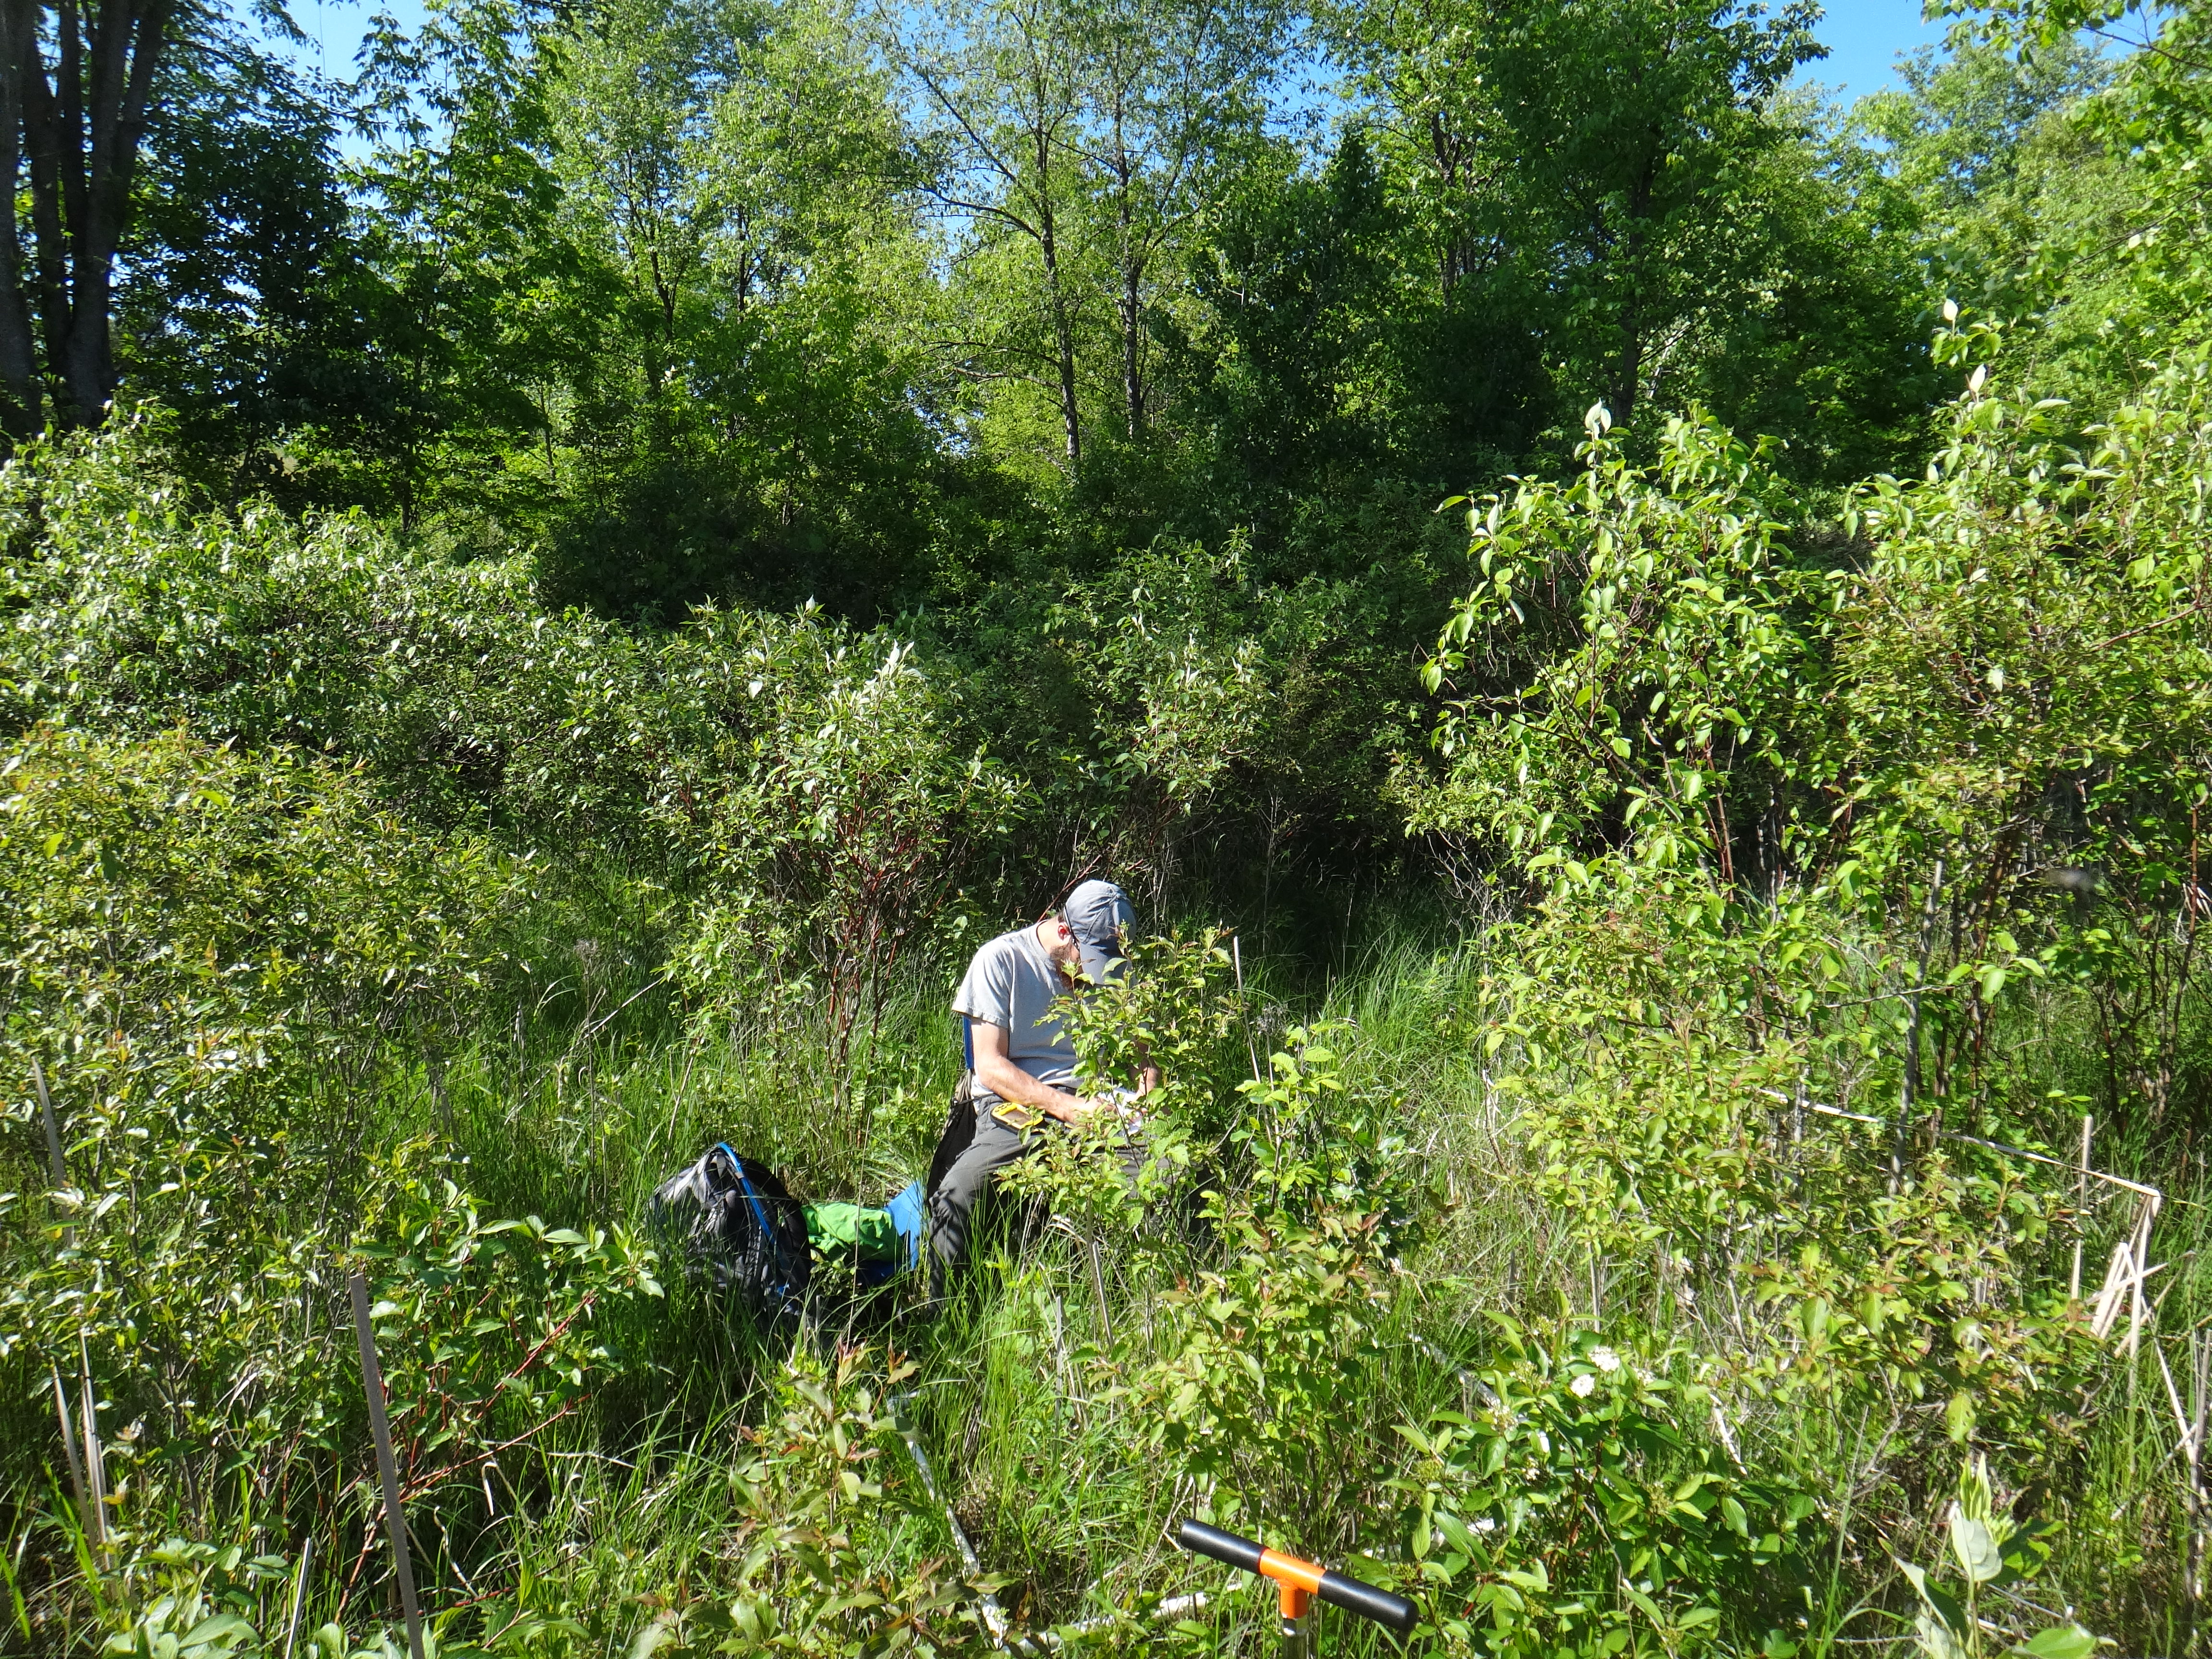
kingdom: Plantae
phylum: Tracheophyta
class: Magnoliopsida
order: Fabales
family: Fabaceae
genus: Lathyrus
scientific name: Lathyrus palustris
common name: Marsh pea
